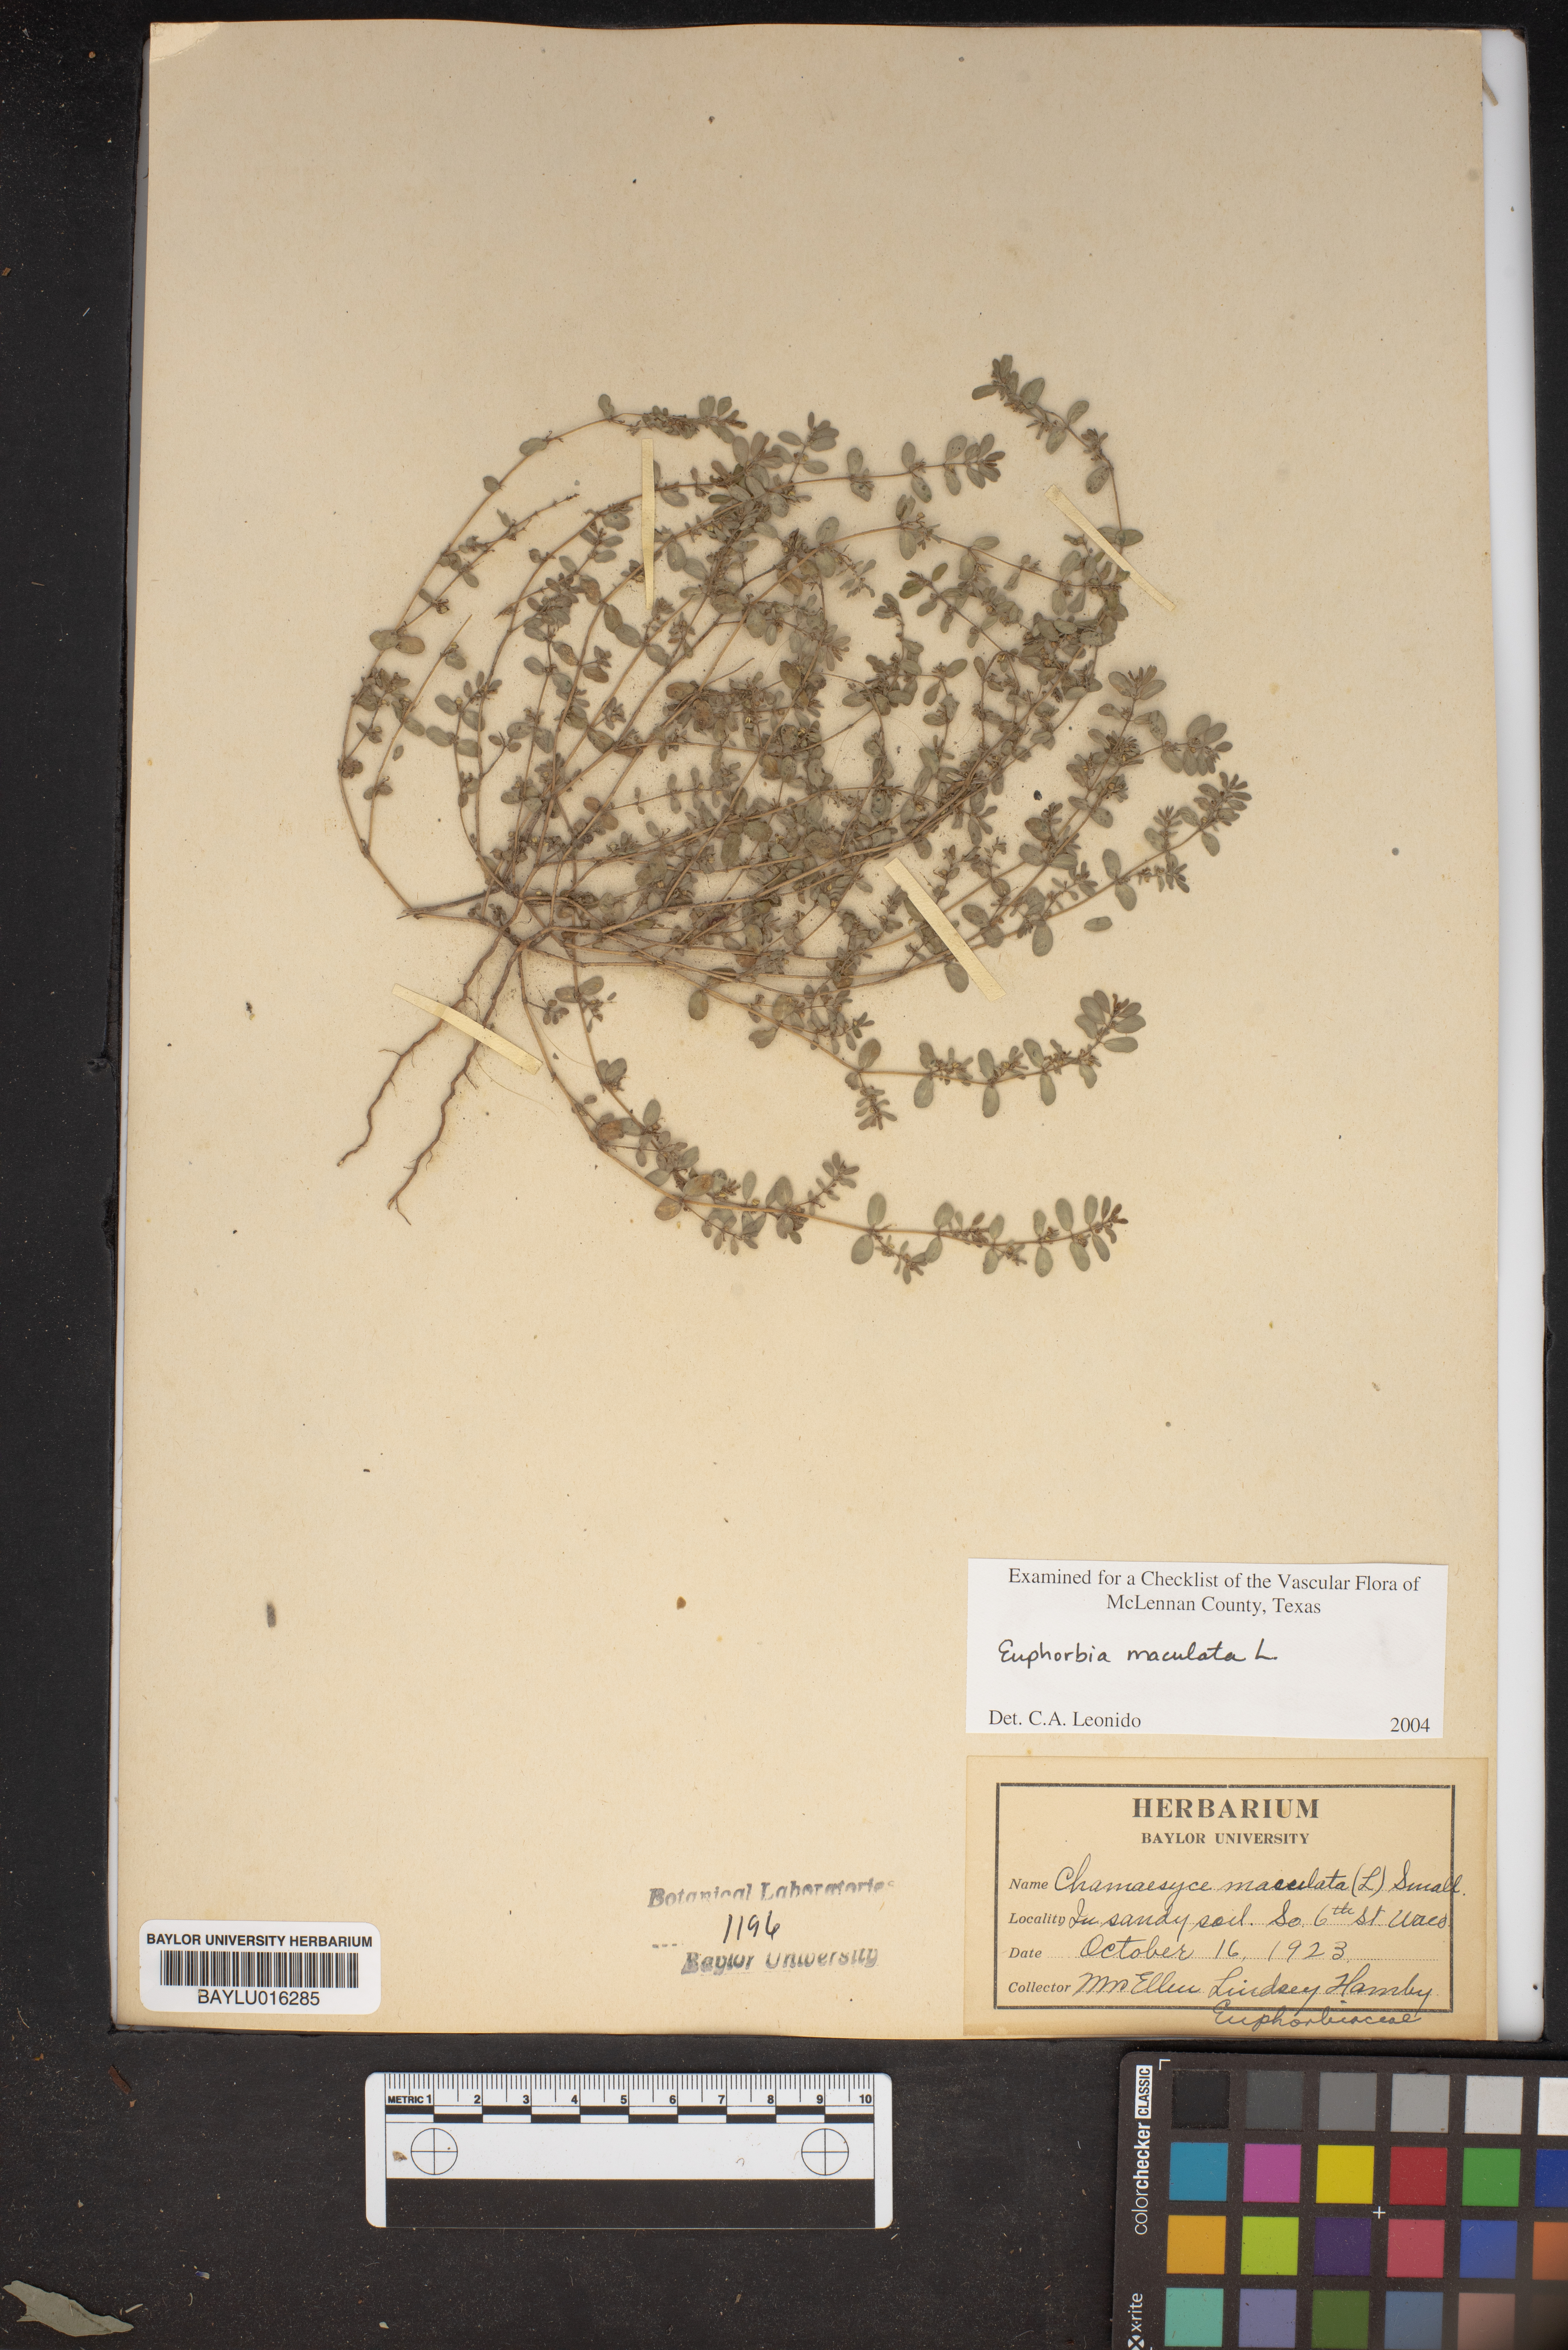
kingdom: Plantae
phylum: Tracheophyta
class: Magnoliopsida
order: Malpighiales
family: Euphorbiaceae
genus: Euphorbia
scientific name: Euphorbia maculata
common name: Spotted spurge
